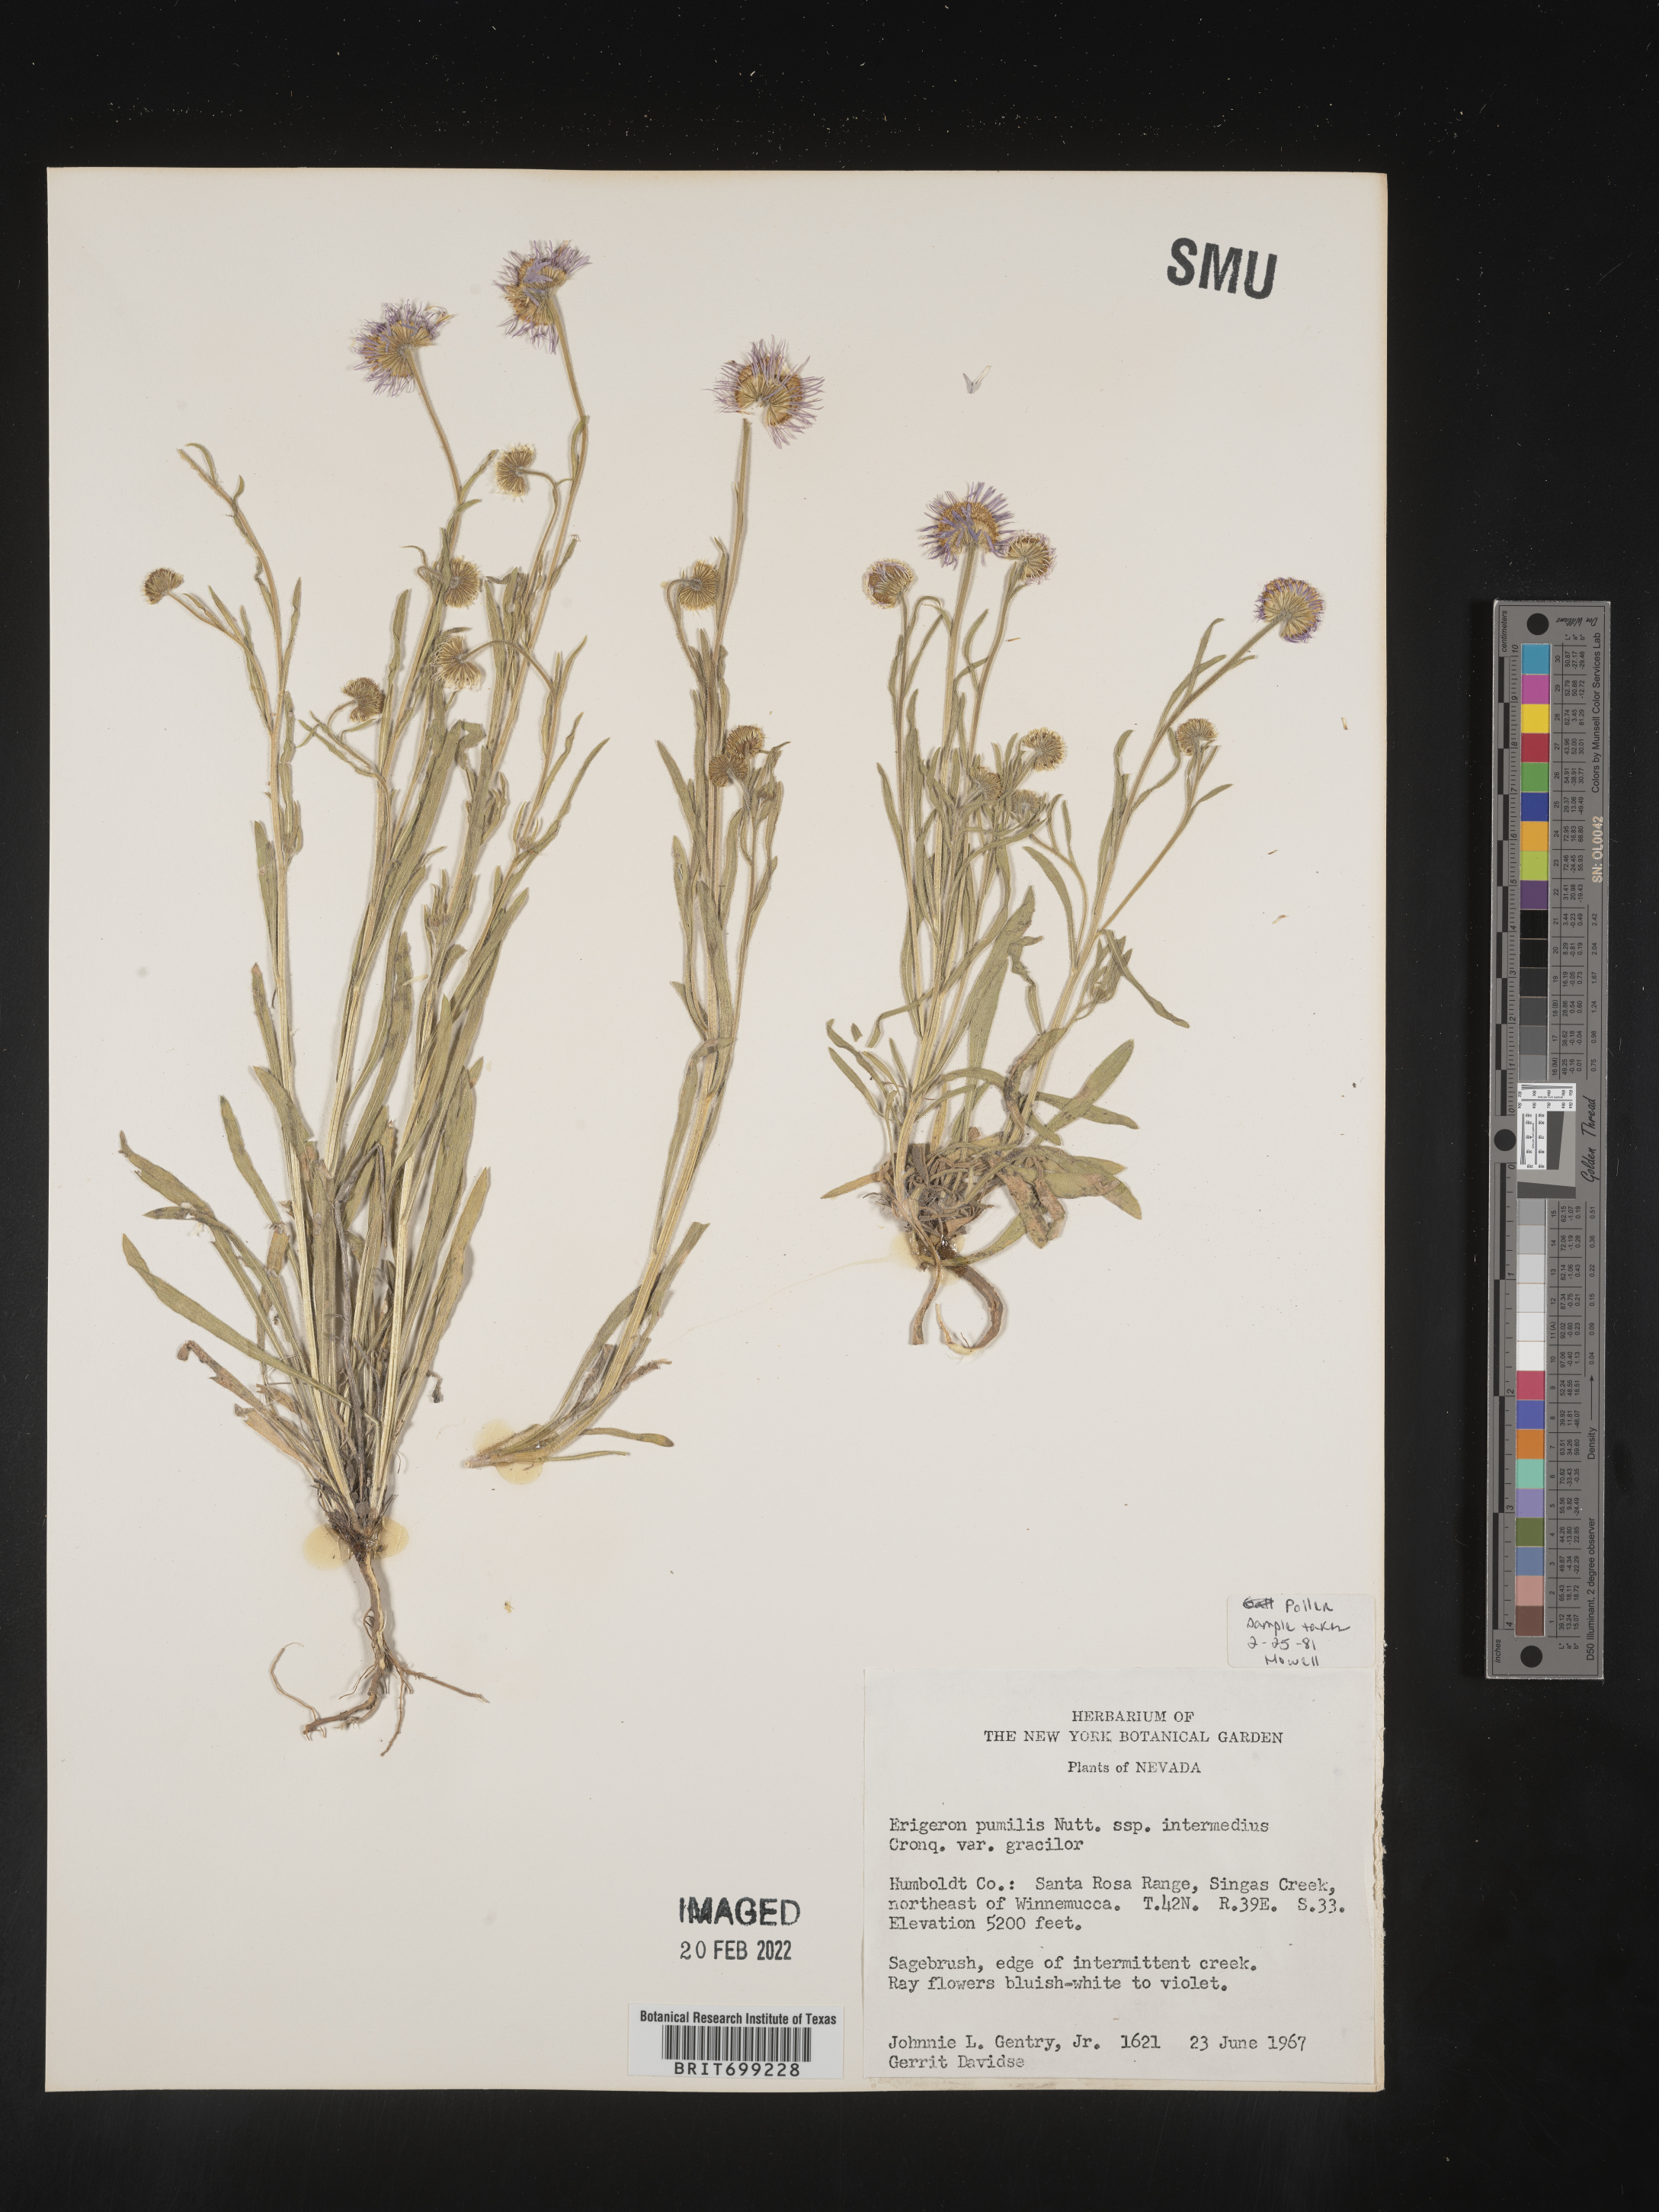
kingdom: Plantae
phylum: Tracheophyta
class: Magnoliopsida
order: Asterales
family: Asteraceae
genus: Erigeron
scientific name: Erigeron pumilus
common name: Shaggy fleabane
